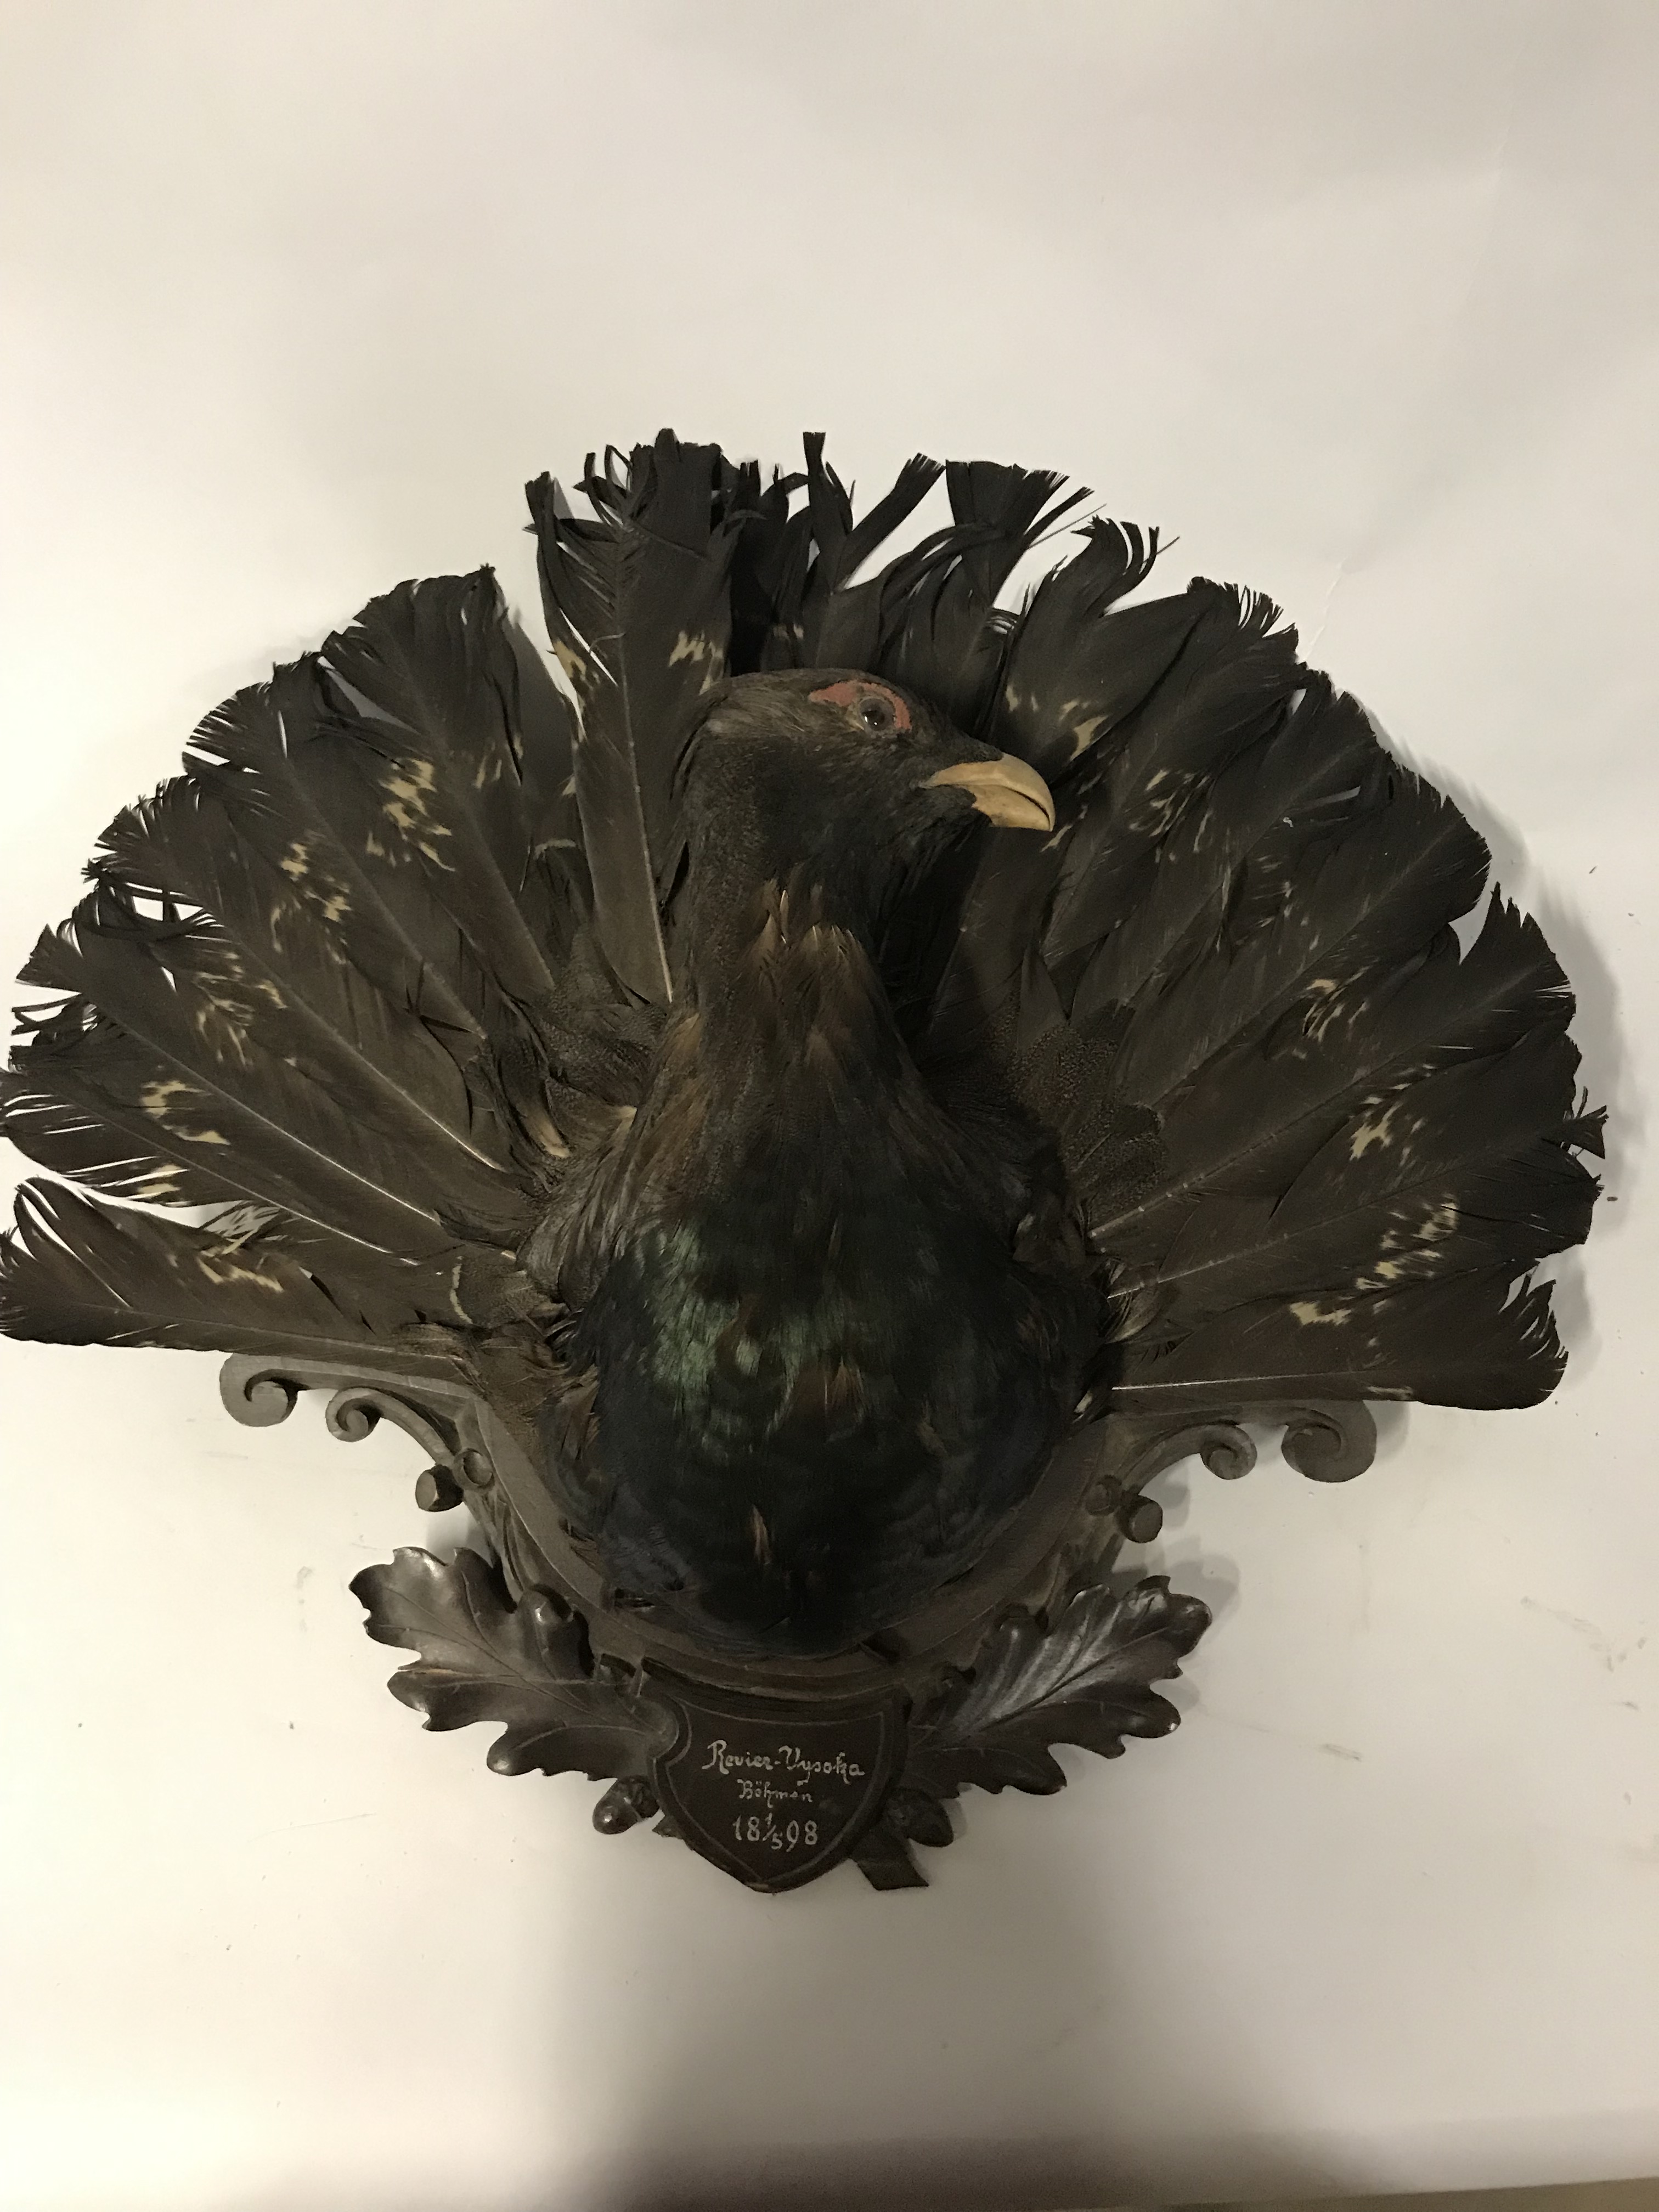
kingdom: Animalia
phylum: Chordata
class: Aves
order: Galliformes
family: Phasianidae
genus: Tetrao
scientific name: Tetrao urogallus
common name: Western capercaillie
